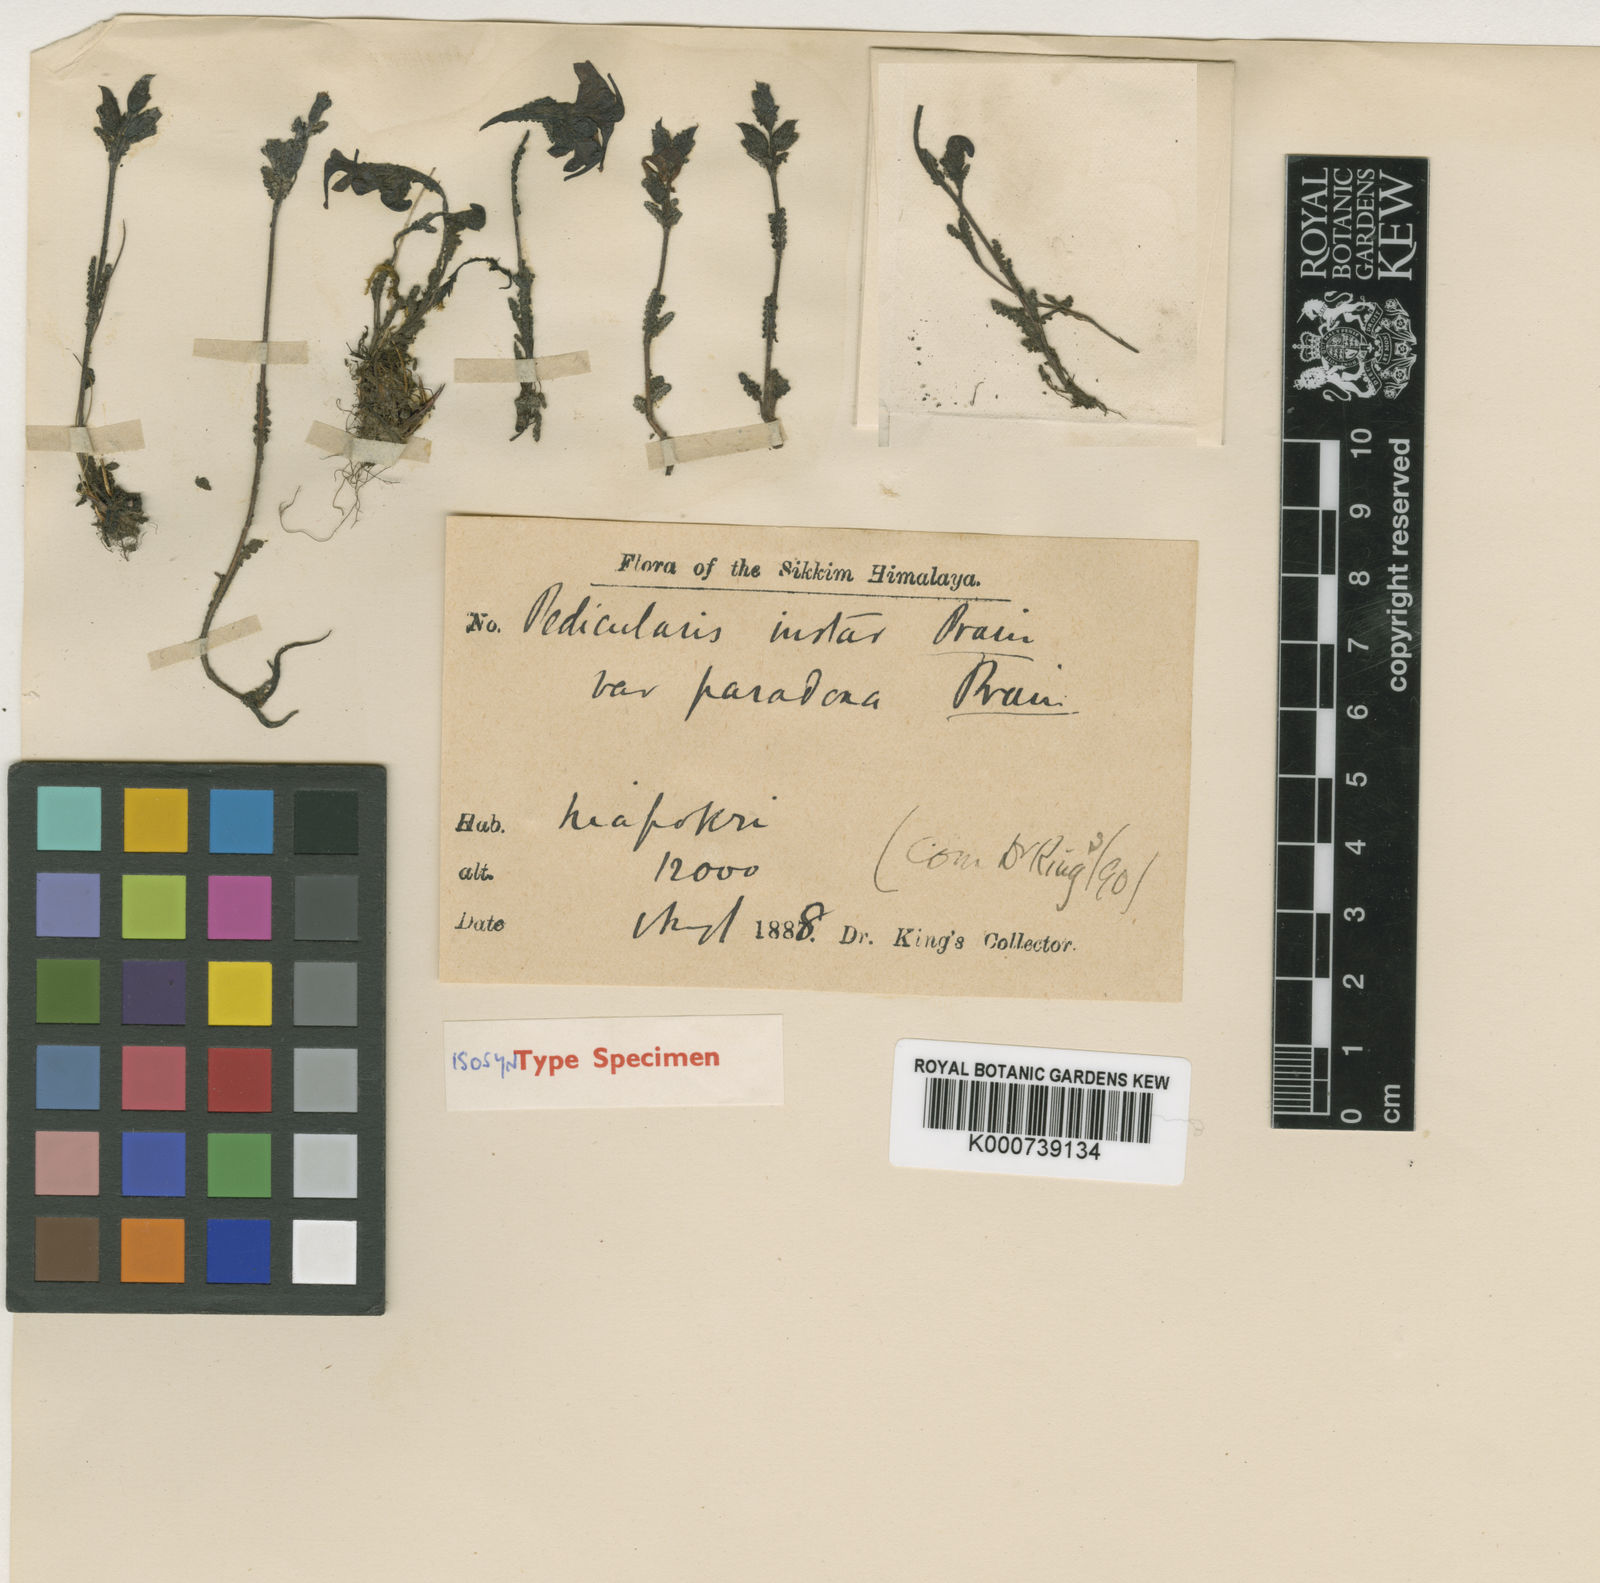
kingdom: Plantae
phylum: Tracheophyta
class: Magnoliopsida
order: Lamiales
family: Orobanchaceae
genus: Pedicularis
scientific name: Pedicularis instar
